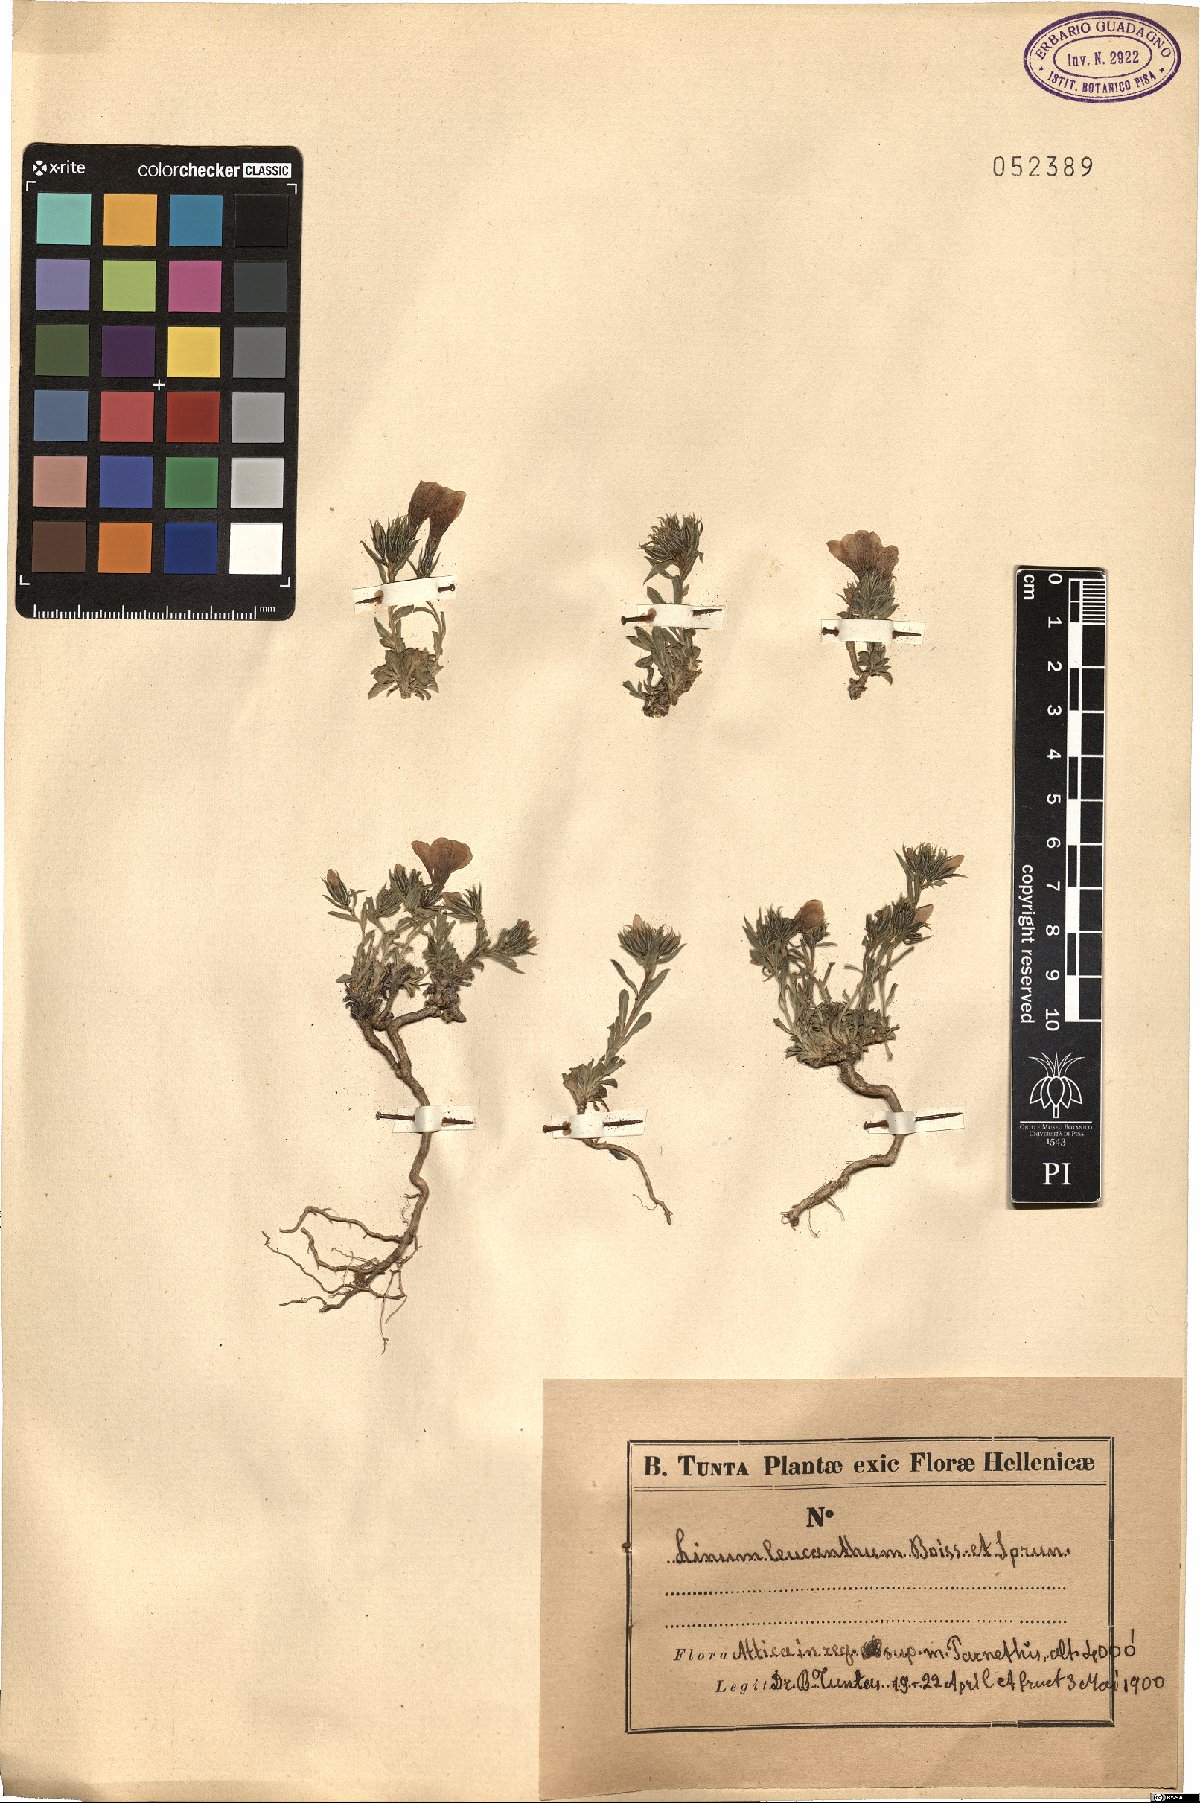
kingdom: Plantae
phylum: Tracheophyta
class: Magnoliopsida
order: Malpighiales
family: Linaceae
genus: Linum
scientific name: Linum leucanthum
